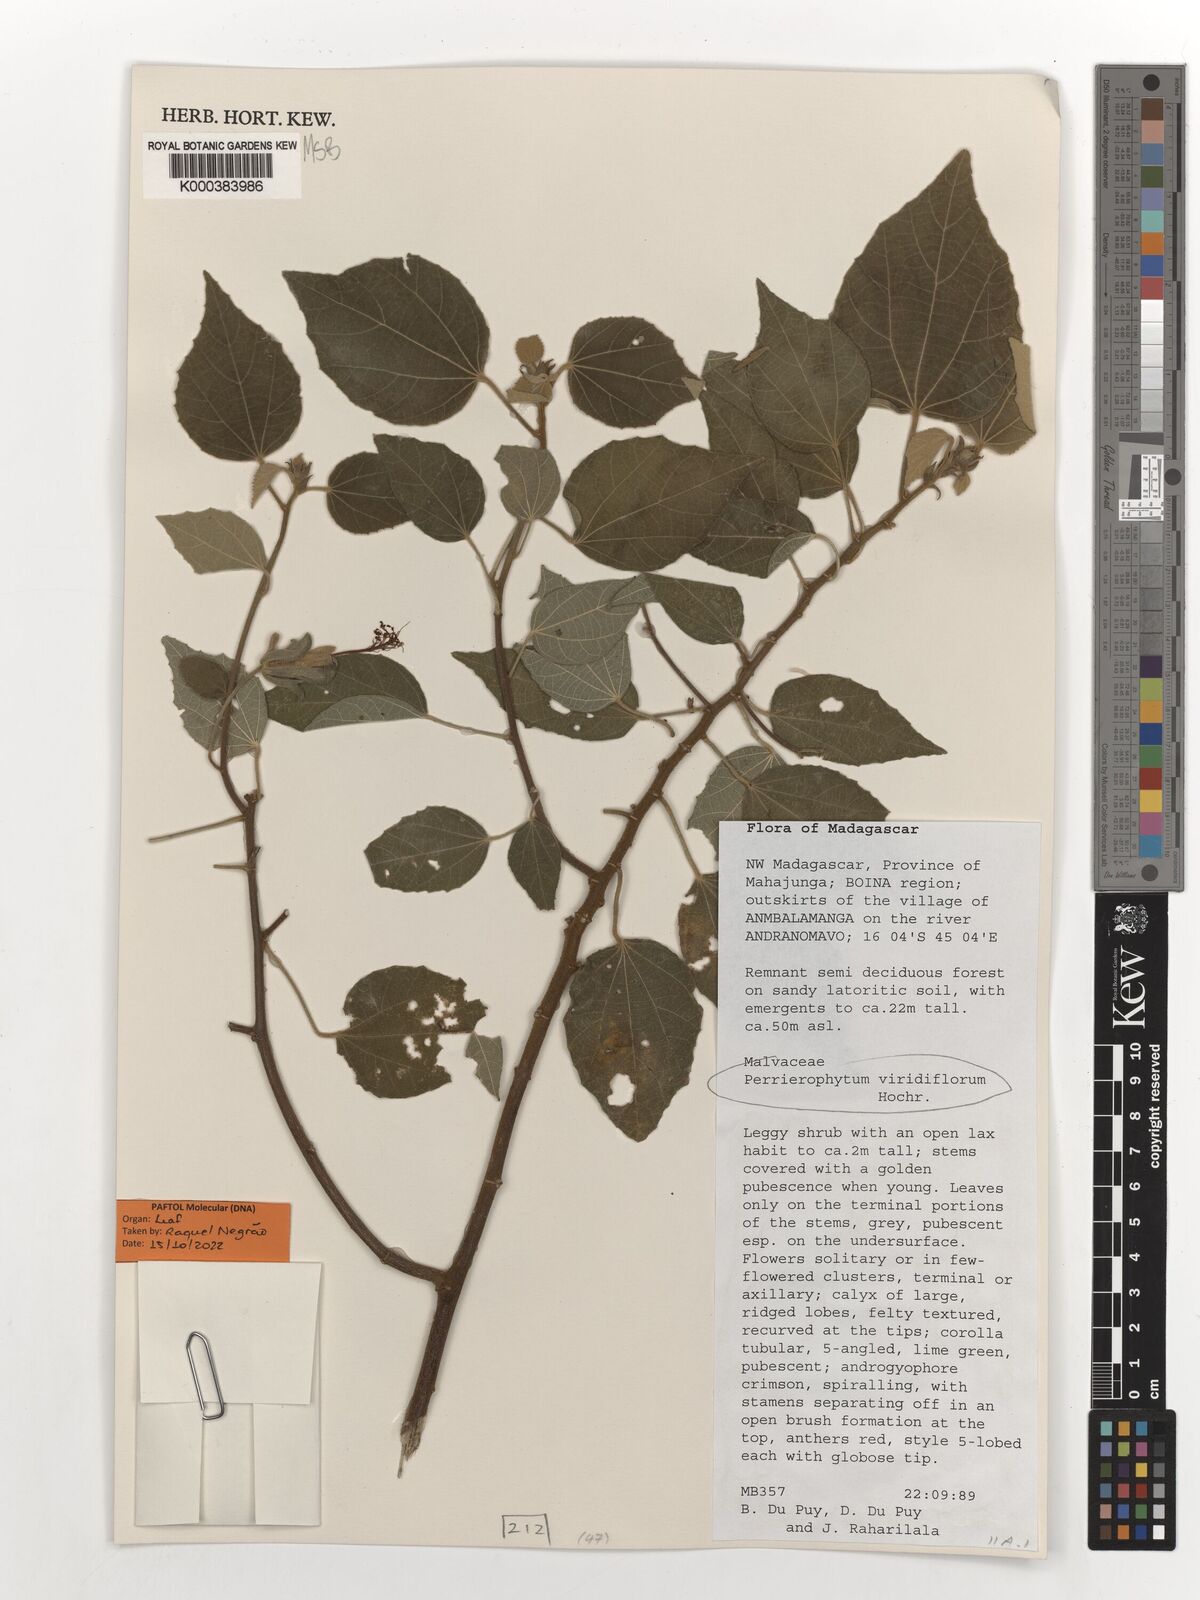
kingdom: Plantae
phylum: Tracheophyta
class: Magnoliopsida
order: Malvales
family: Malvaceae
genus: Perrierophytum
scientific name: Perrierophytum viridiflorum
